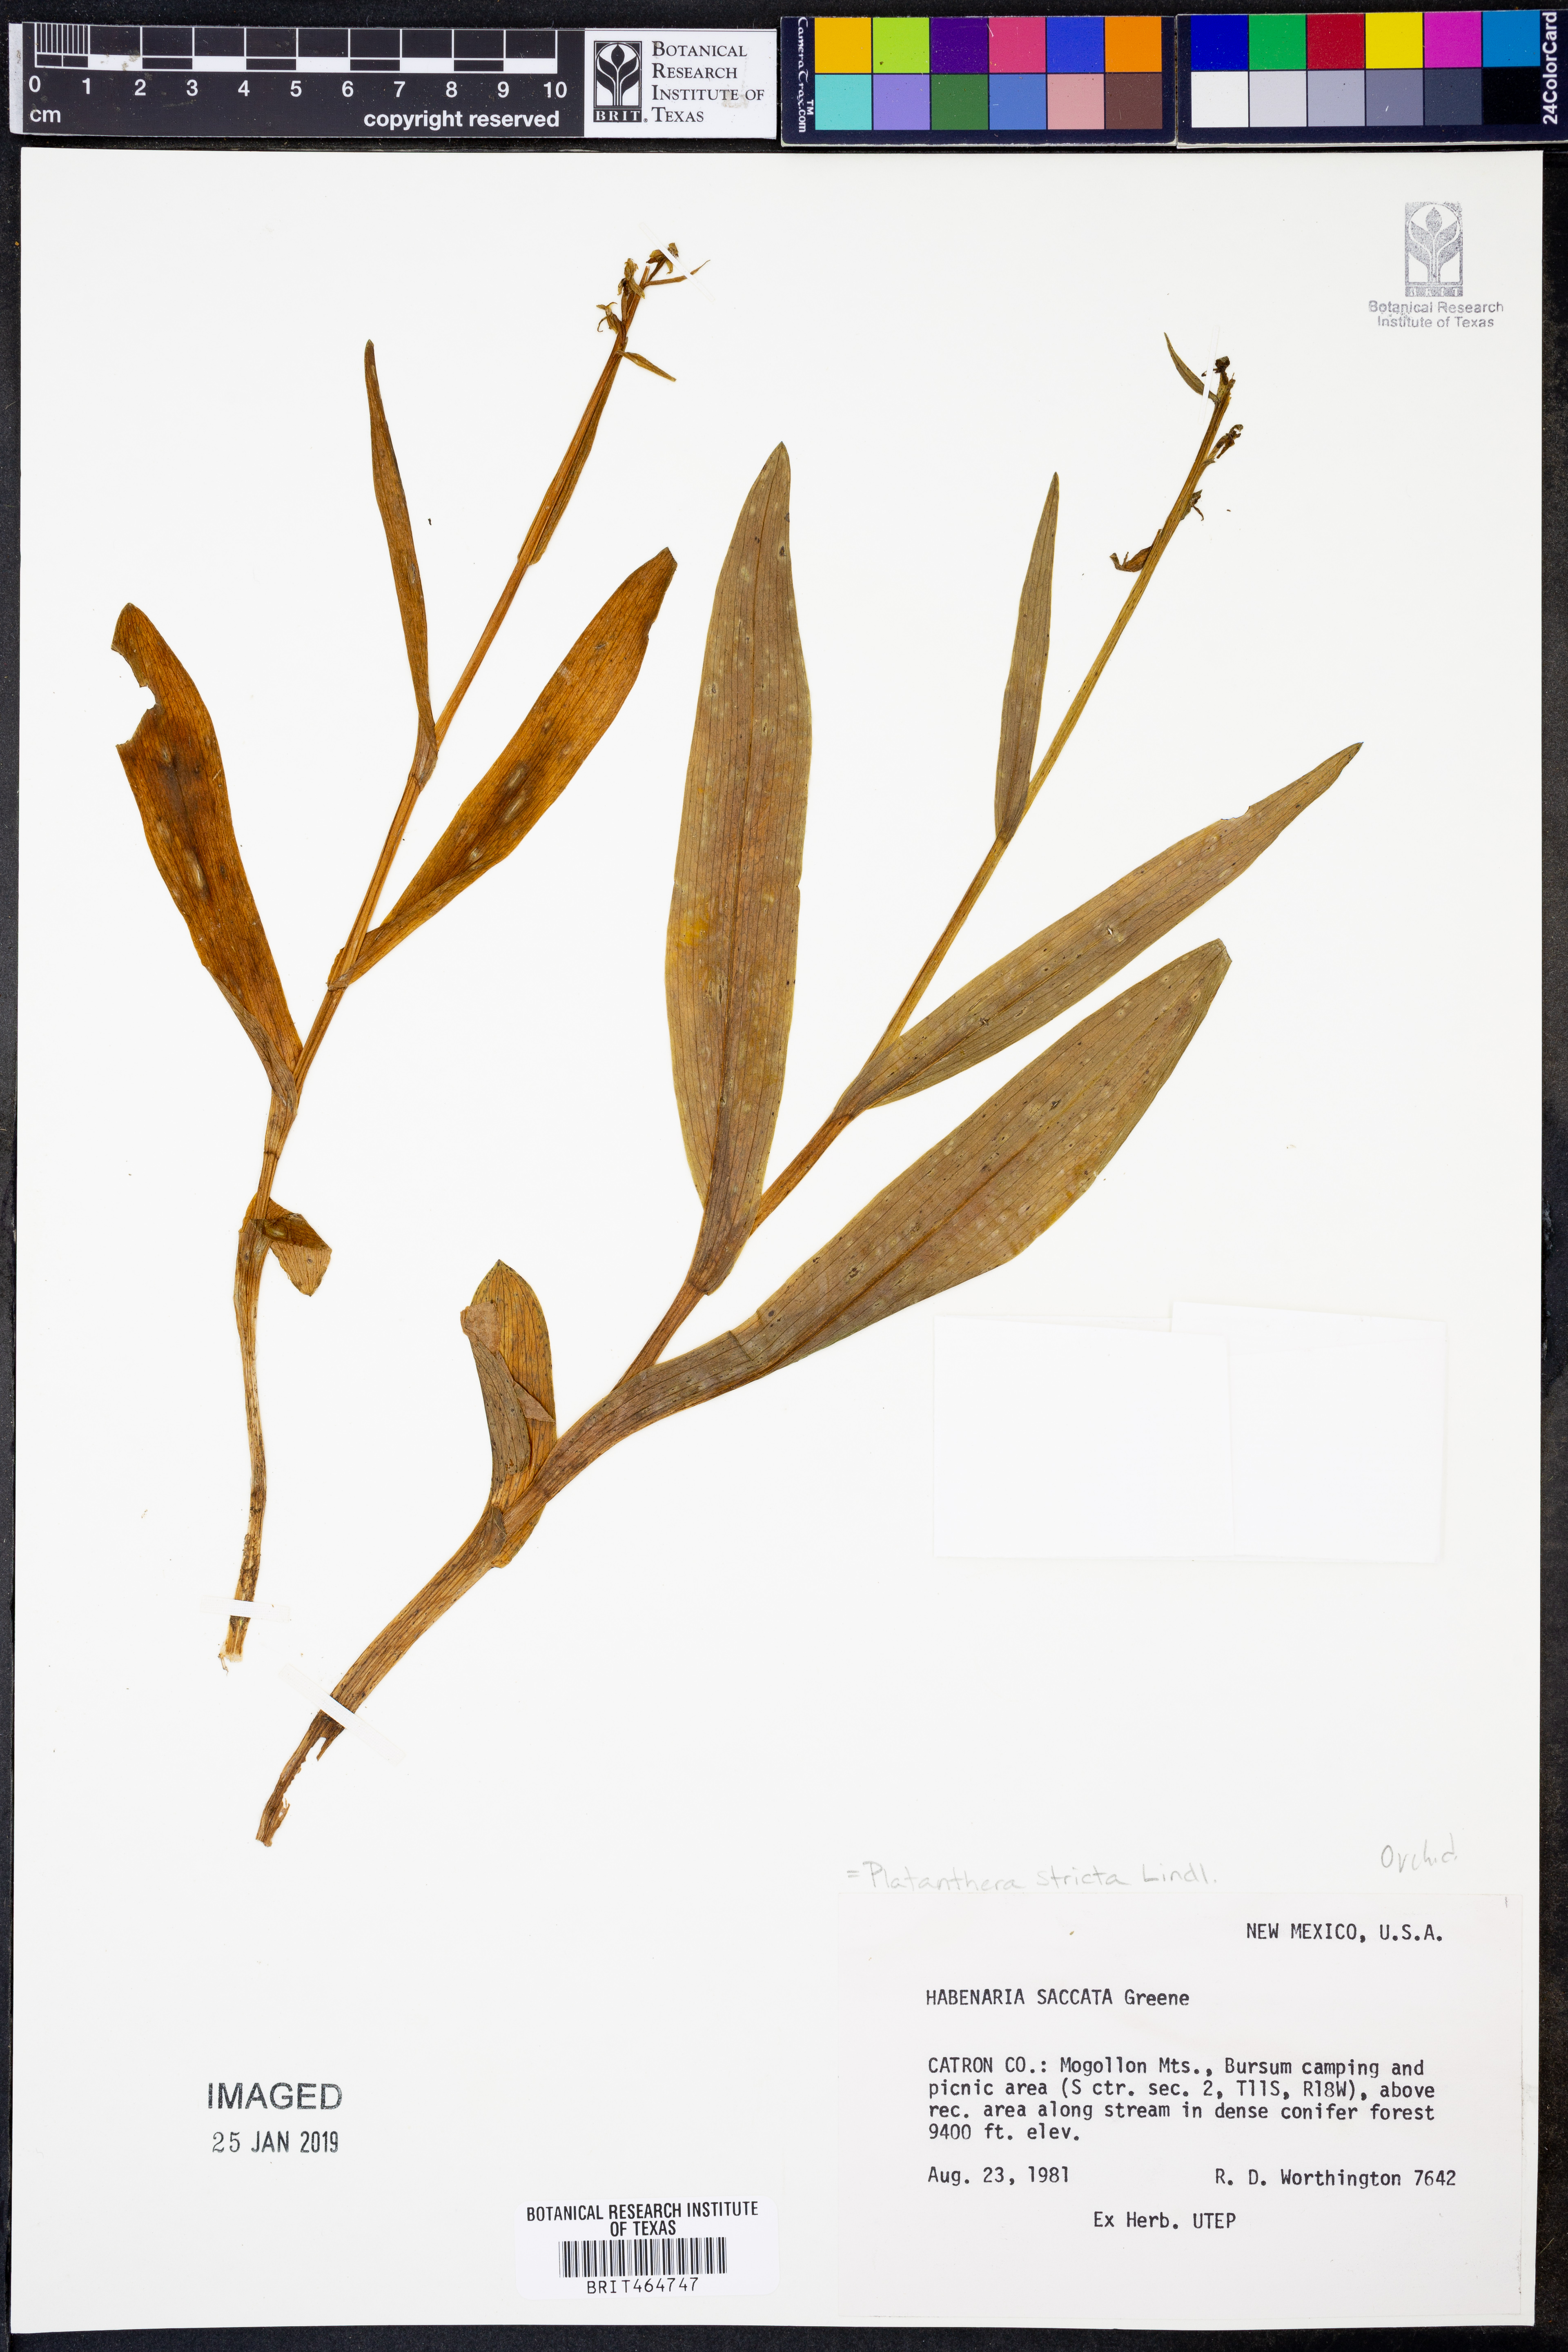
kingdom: Plantae
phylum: Tracheophyta
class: Liliopsida
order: Asparagales
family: Orchidaceae
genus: Platanthera
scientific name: Platanthera stricta
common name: Slender bog orchid
